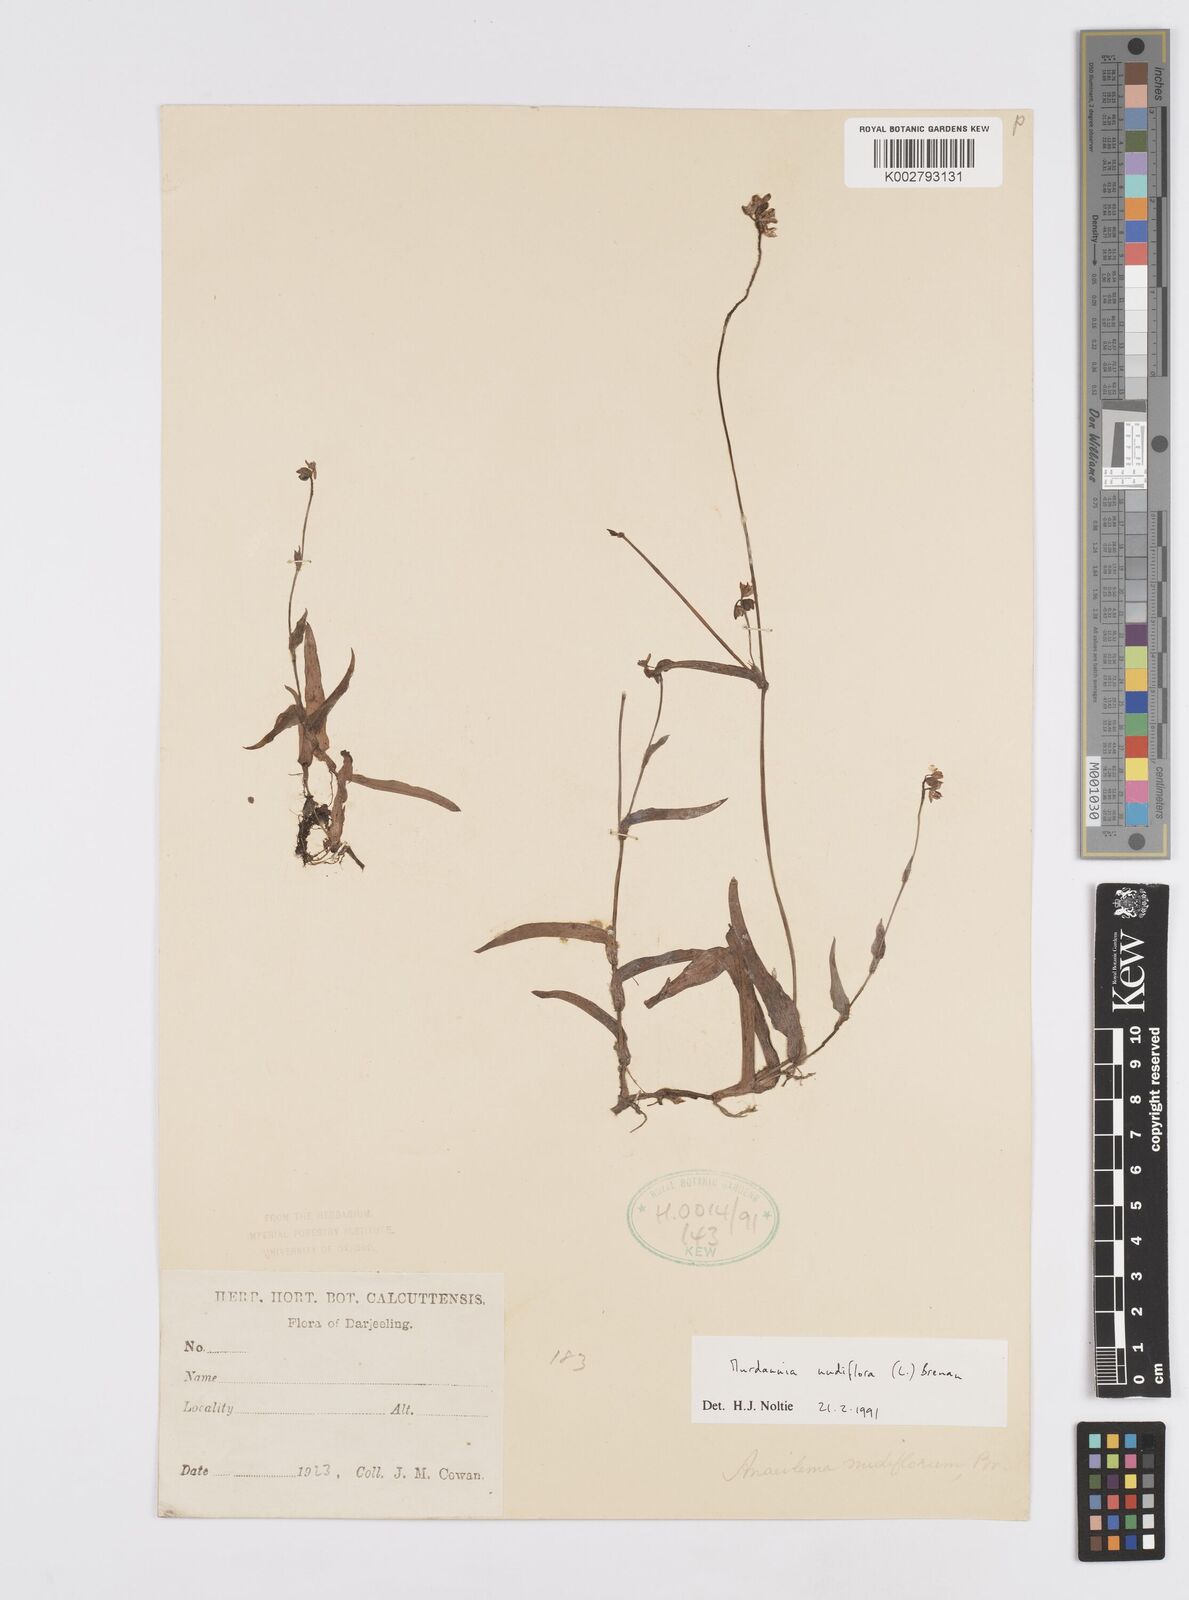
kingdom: Plantae
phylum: Tracheophyta
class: Liliopsida
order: Commelinales
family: Commelinaceae
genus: Murdannia
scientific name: Murdannia nudiflora
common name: Nakedstem dewflower
